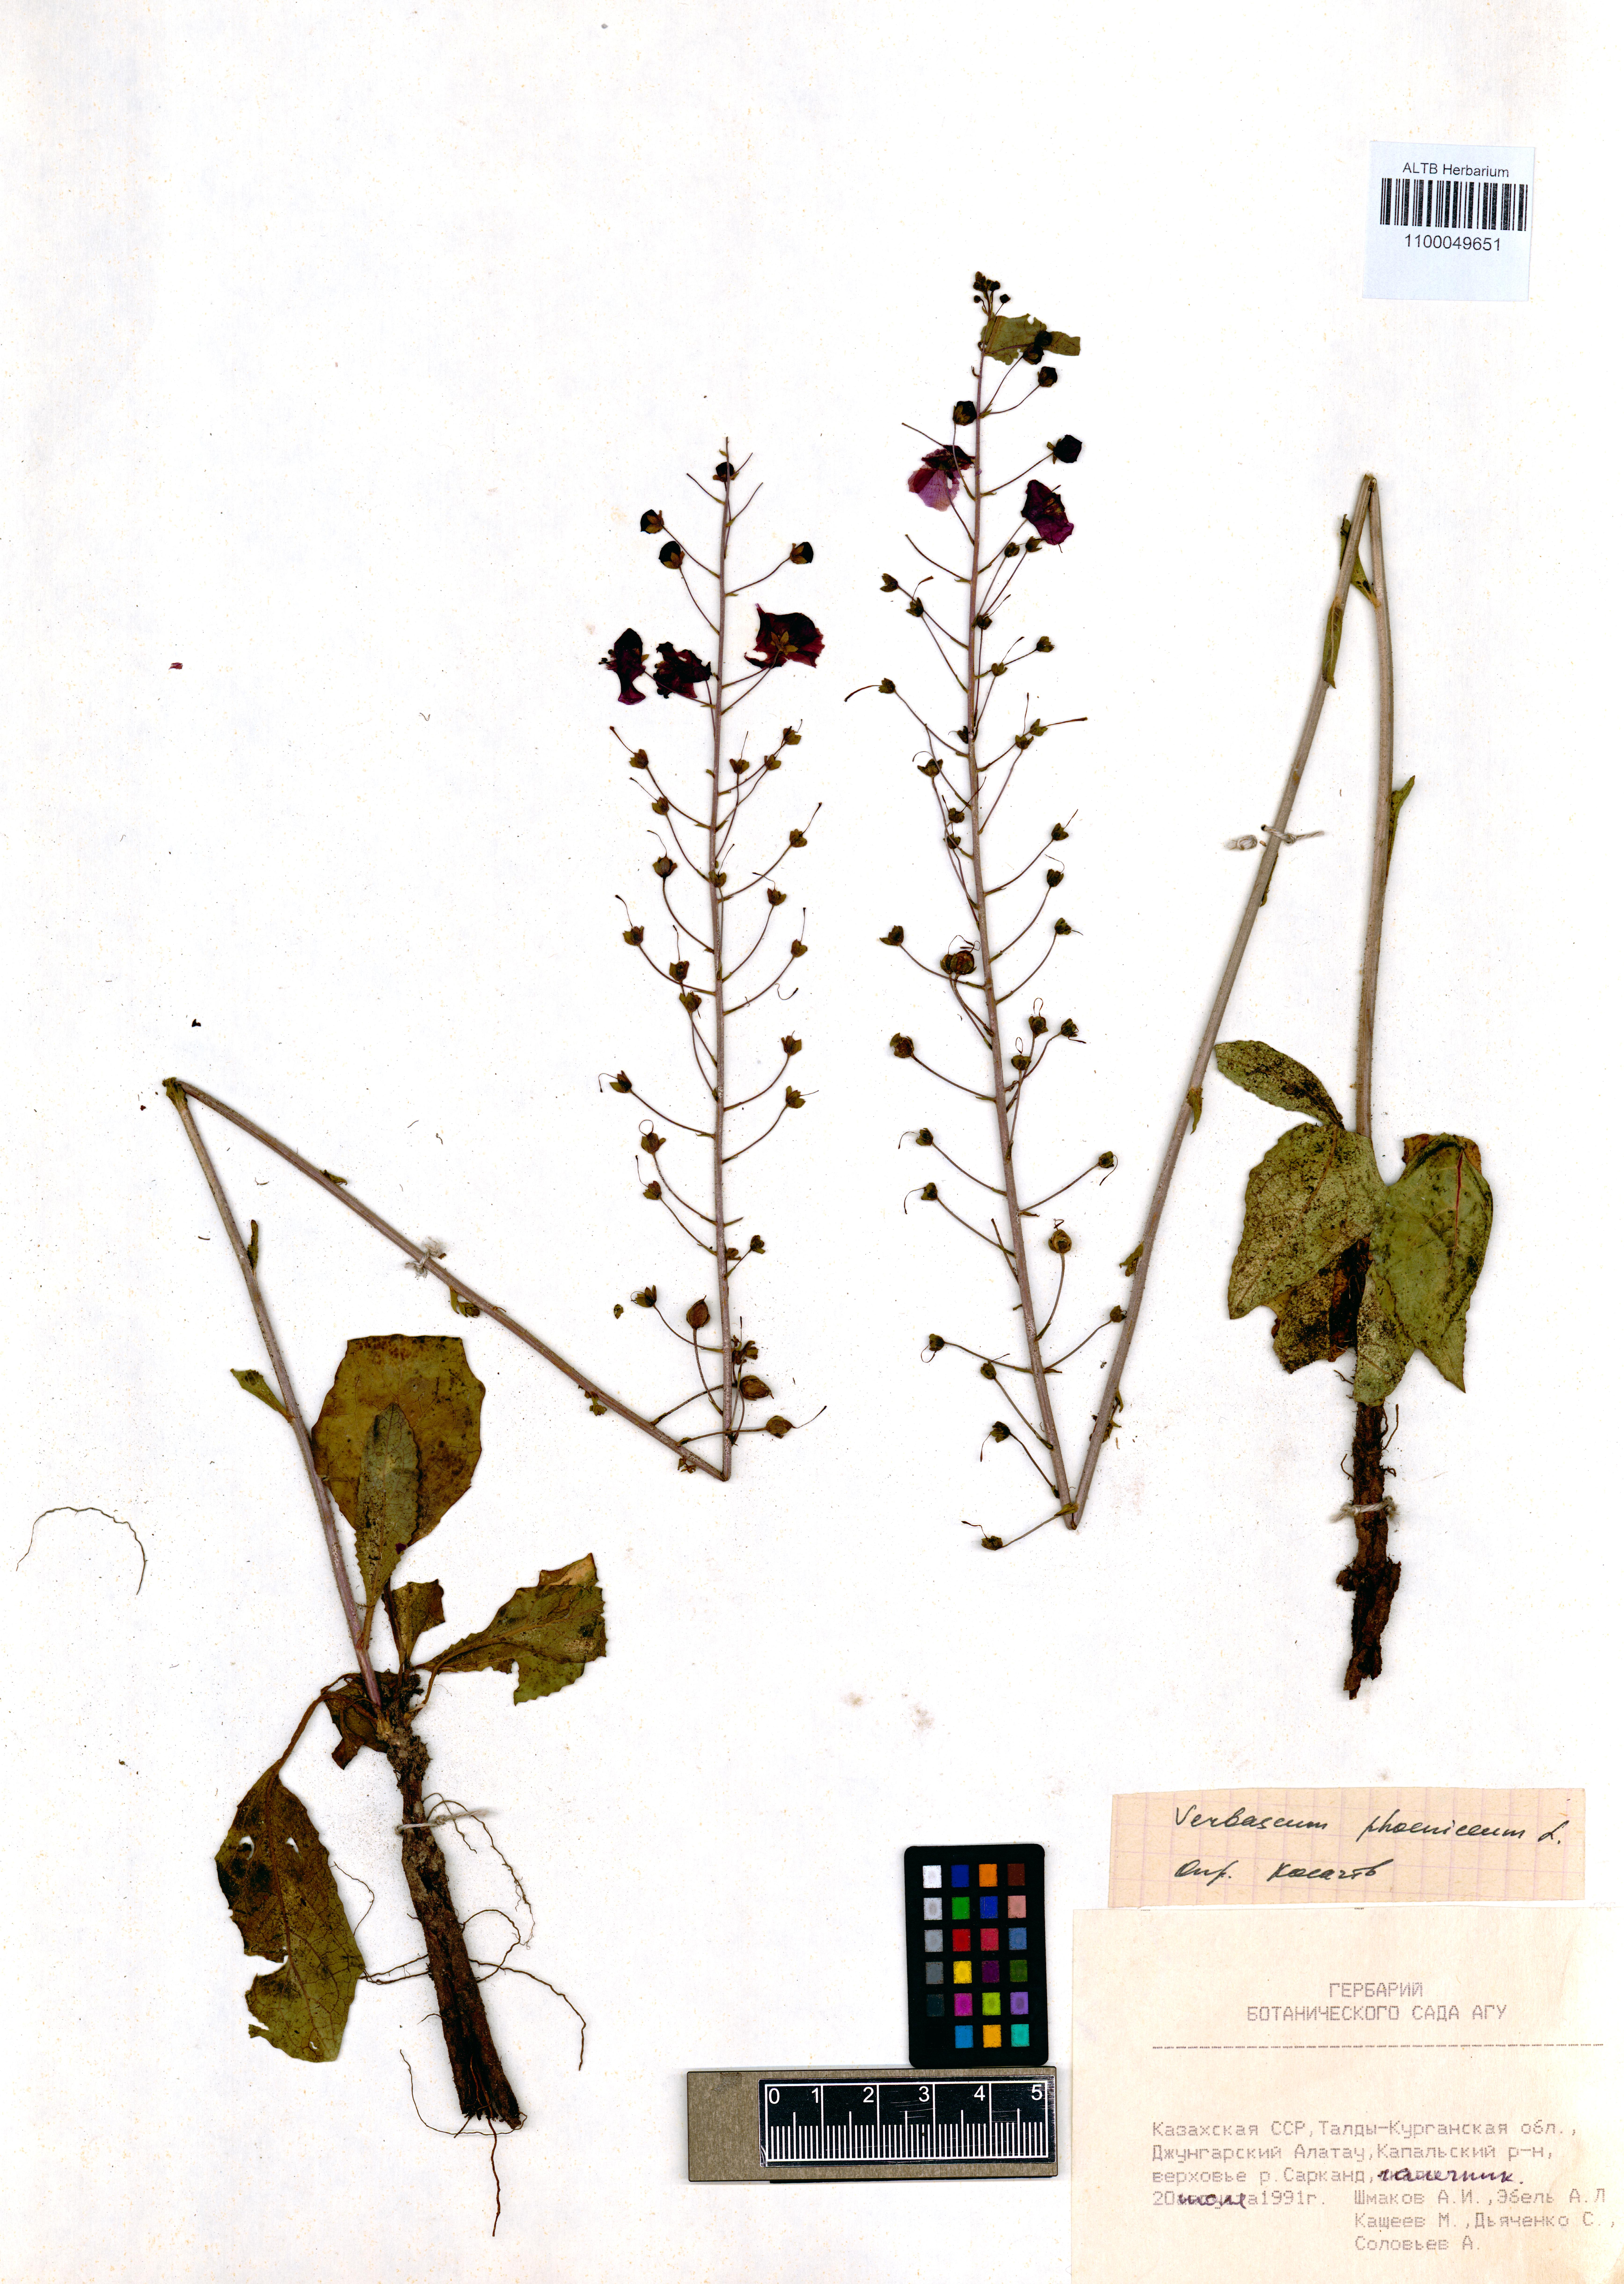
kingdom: Plantae
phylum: Tracheophyta
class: Magnoliopsida
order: Lamiales
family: Scrophulariaceae
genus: Verbascum
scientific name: Verbascum phoeniceum
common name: Purple mullein
